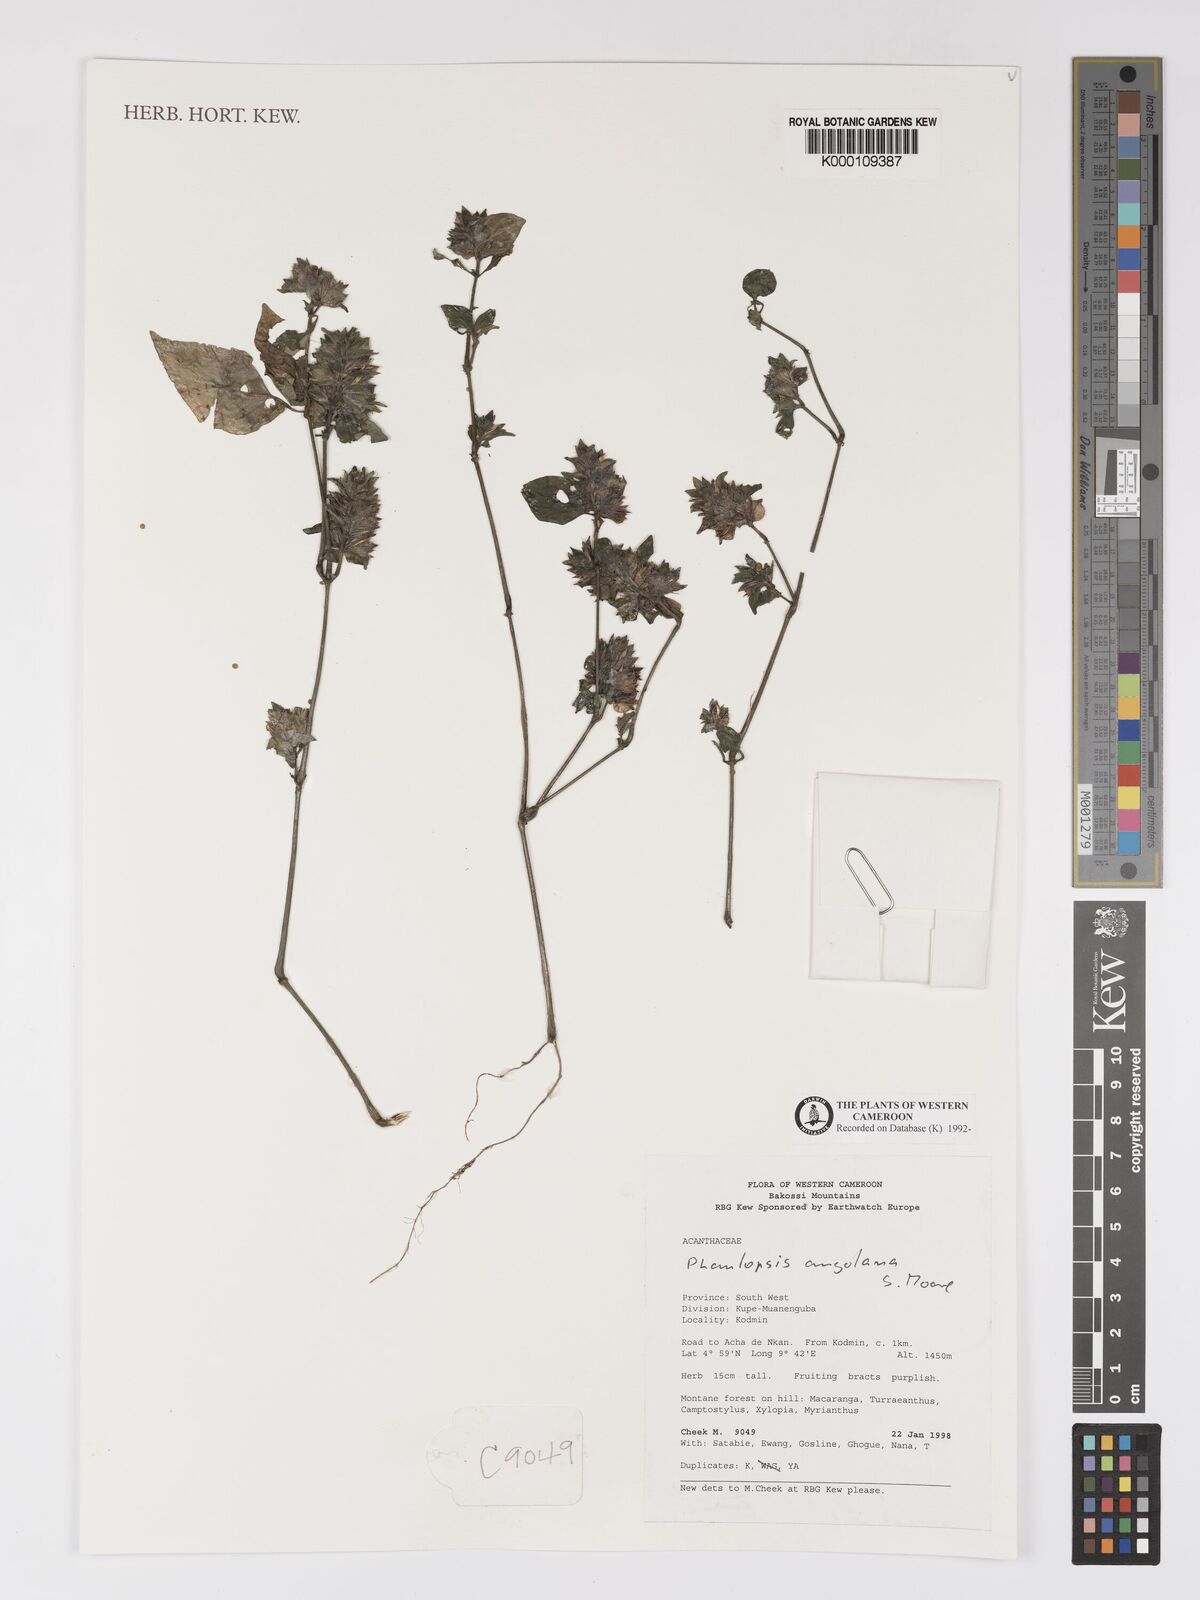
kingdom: Plantae
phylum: Tracheophyta
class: Magnoliopsida
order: Lamiales
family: Acanthaceae
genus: Phaulopsis
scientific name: Phaulopsis angolana
